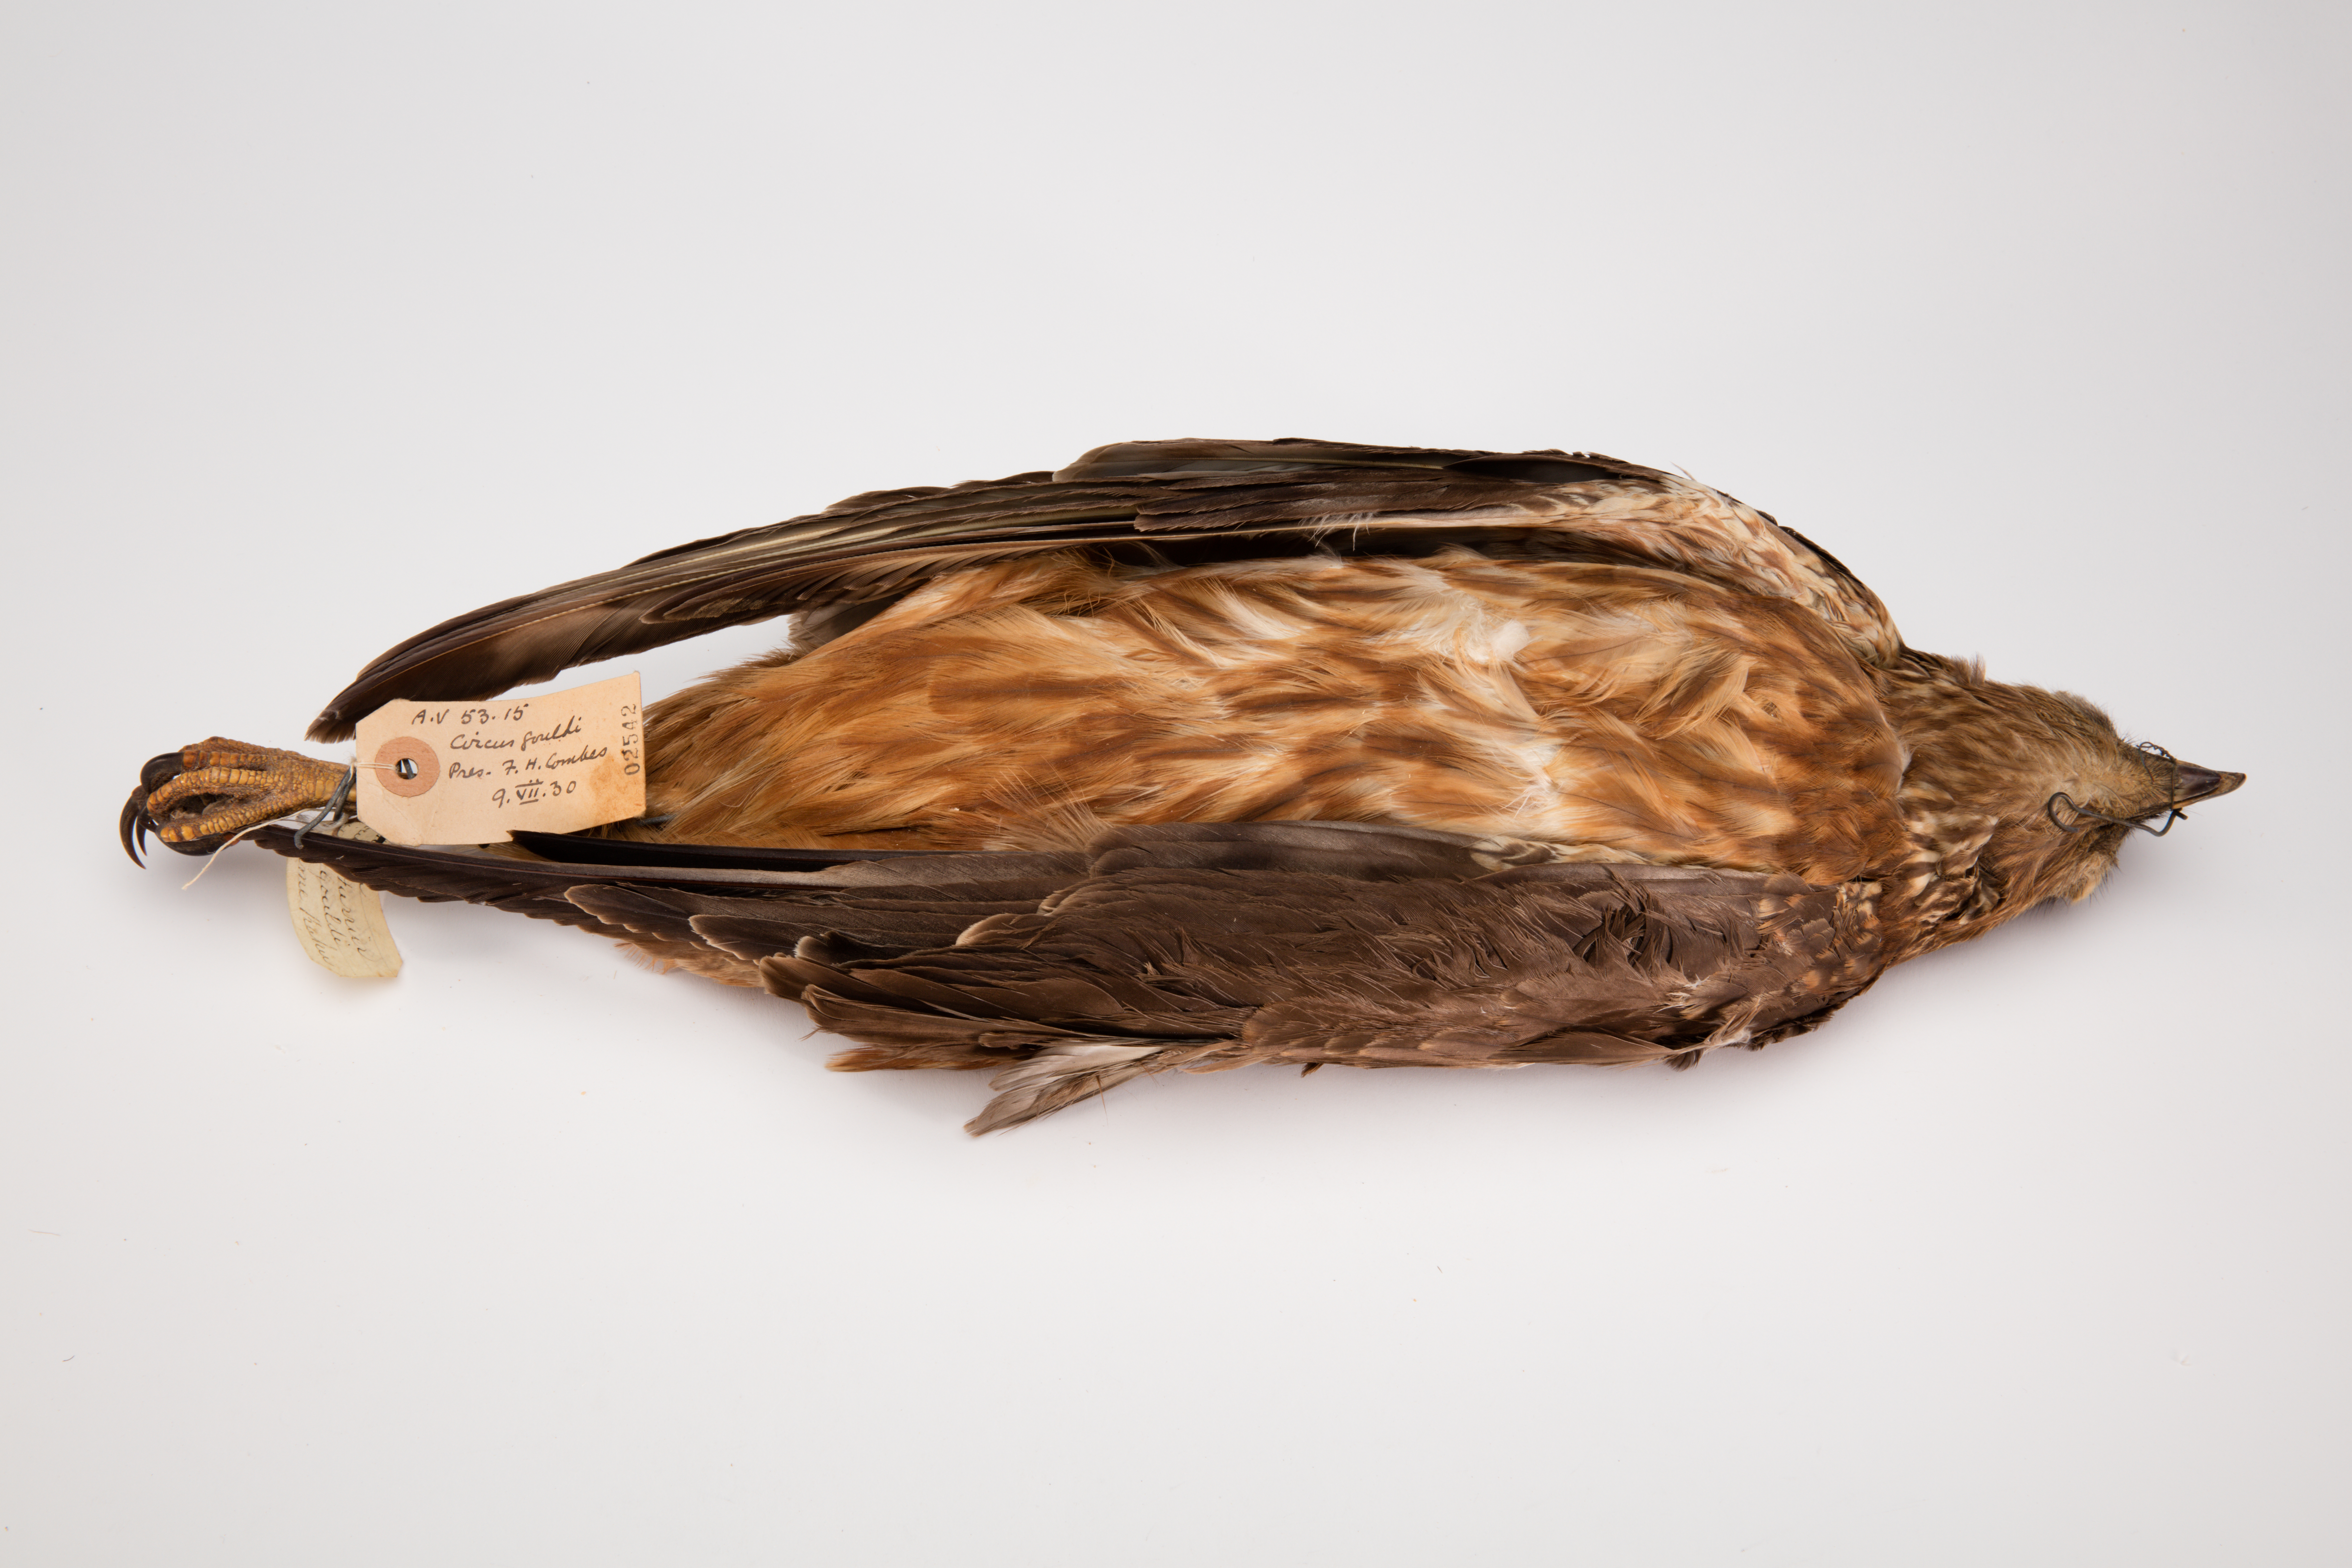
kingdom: Animalia
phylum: Chordata
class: Aves
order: Accipitriformes
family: Accipitridae
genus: Circus
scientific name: Circus approximans
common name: Swamp harrier
